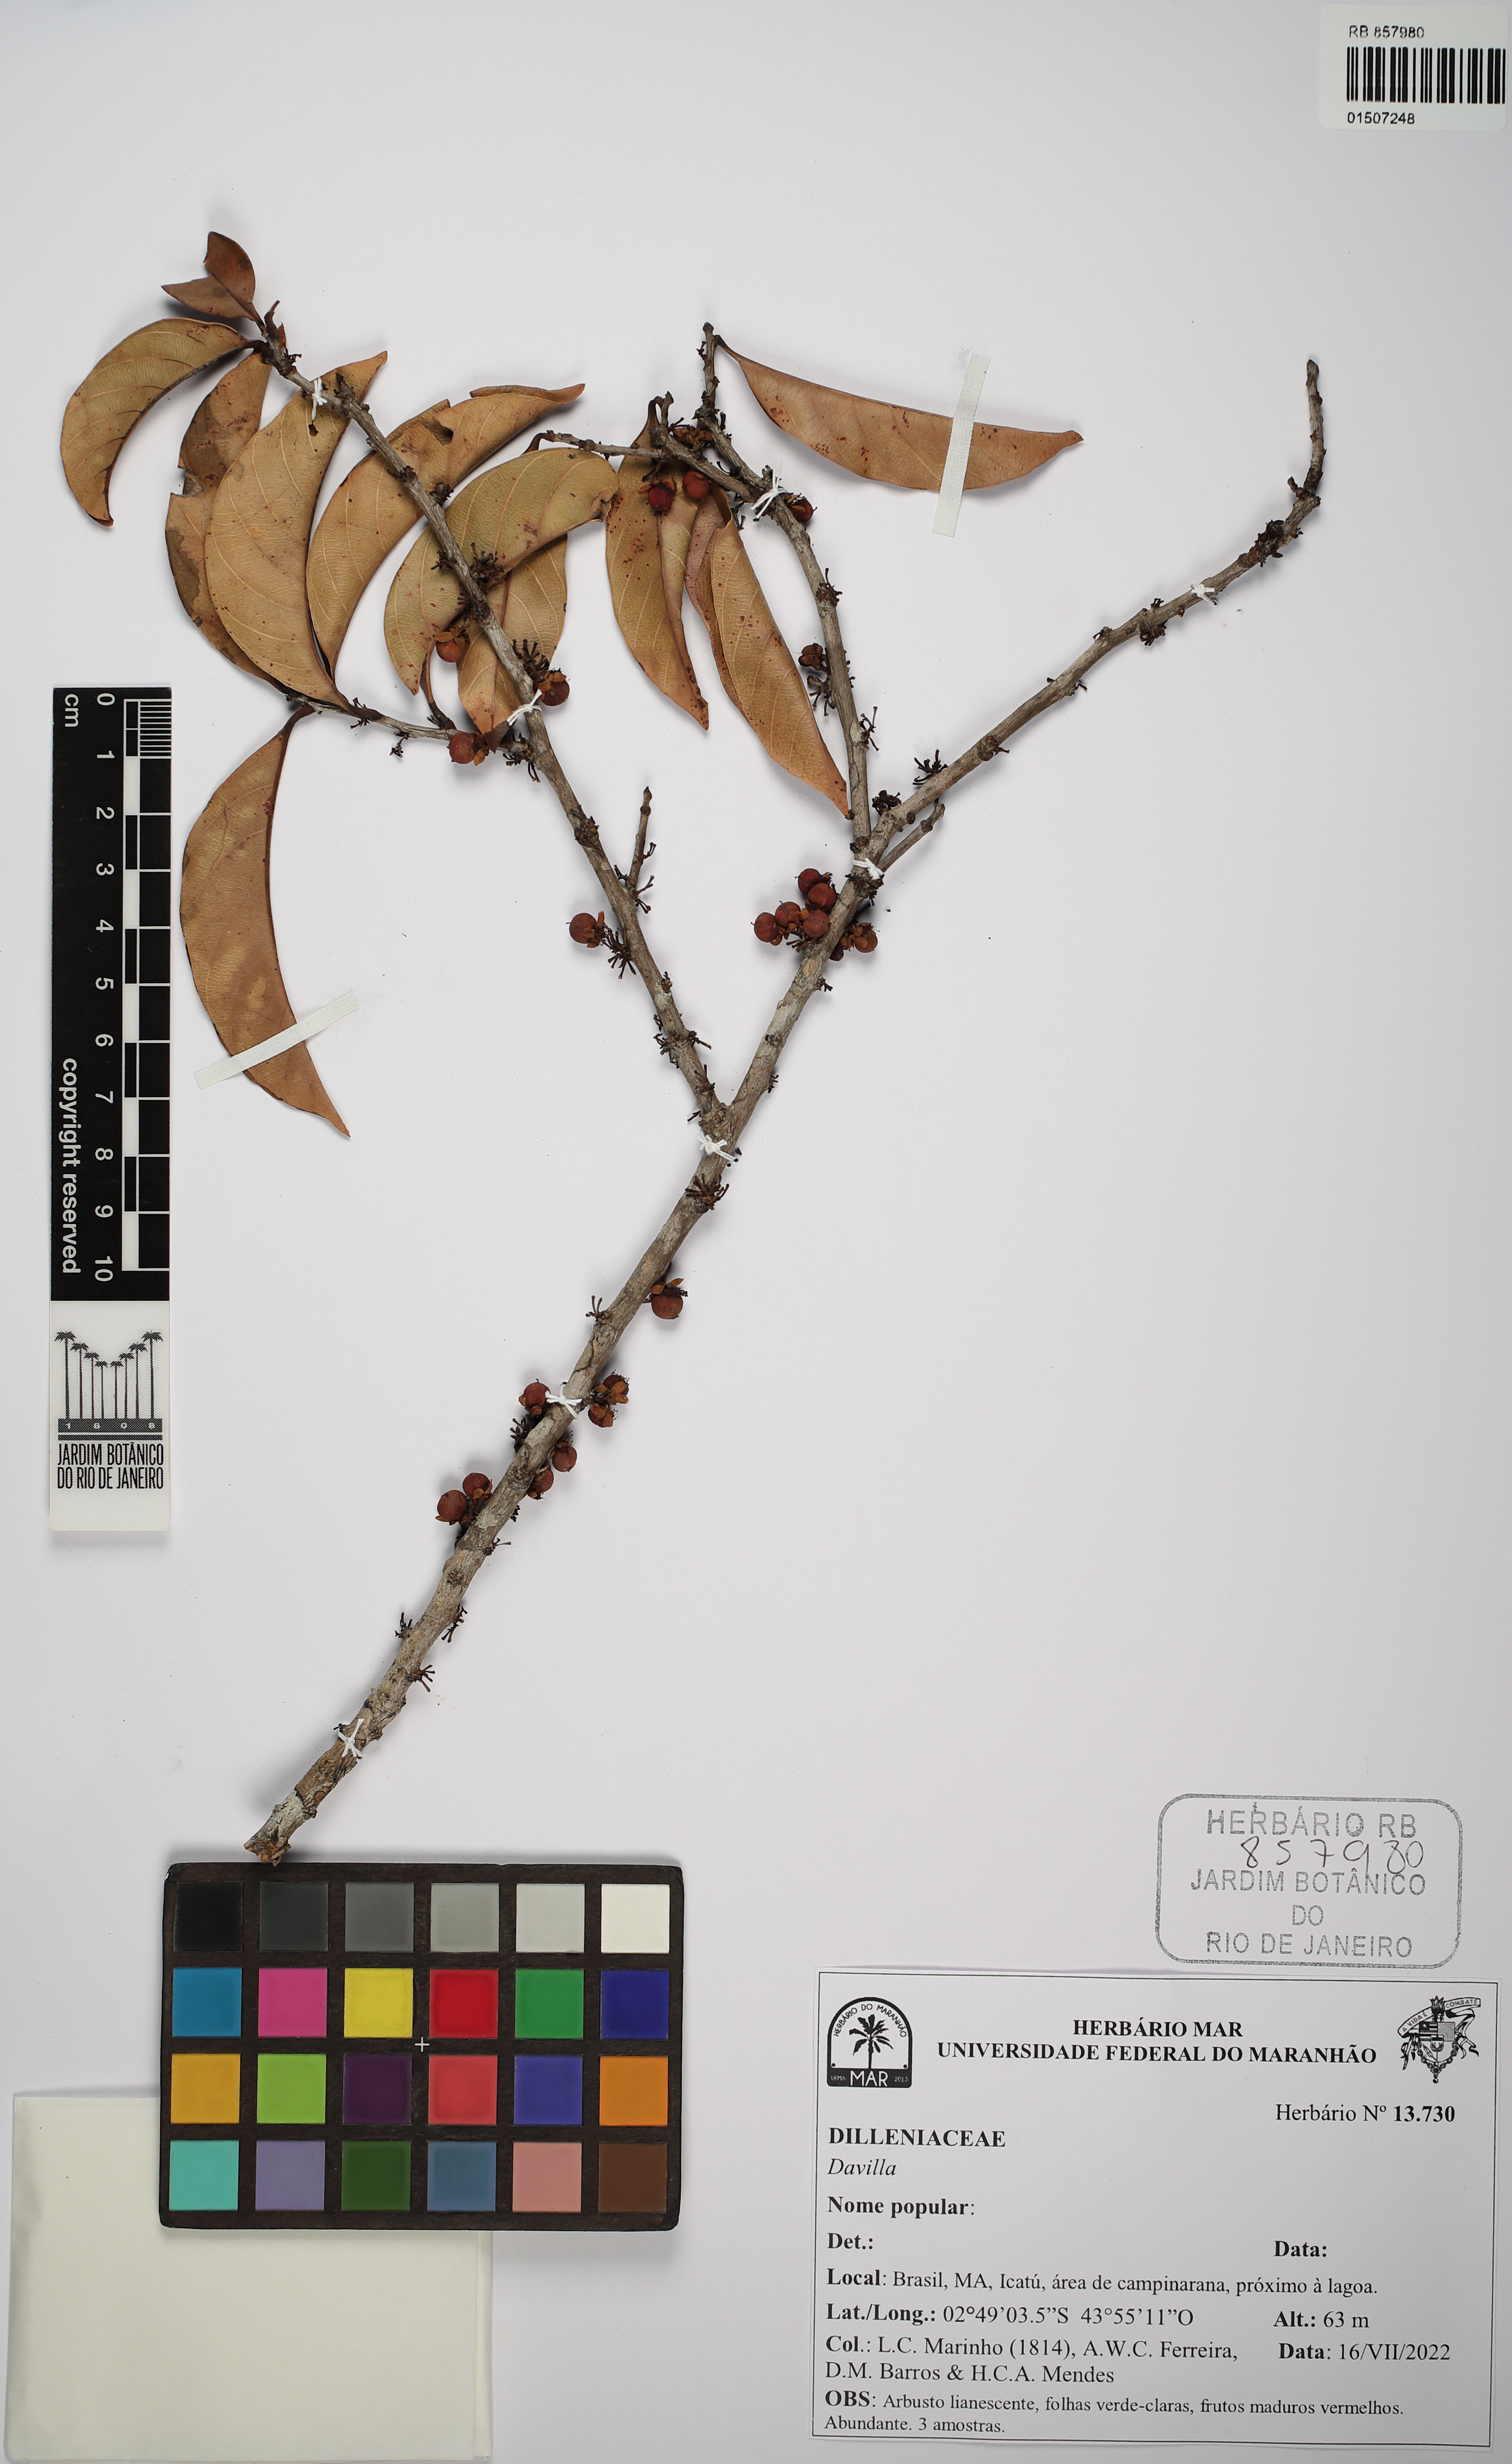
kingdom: Plantae
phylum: Tracheophyta
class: Magnoliopsida
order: Dilleniales
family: Dilleniaceae
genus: Davilla
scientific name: Davilla
